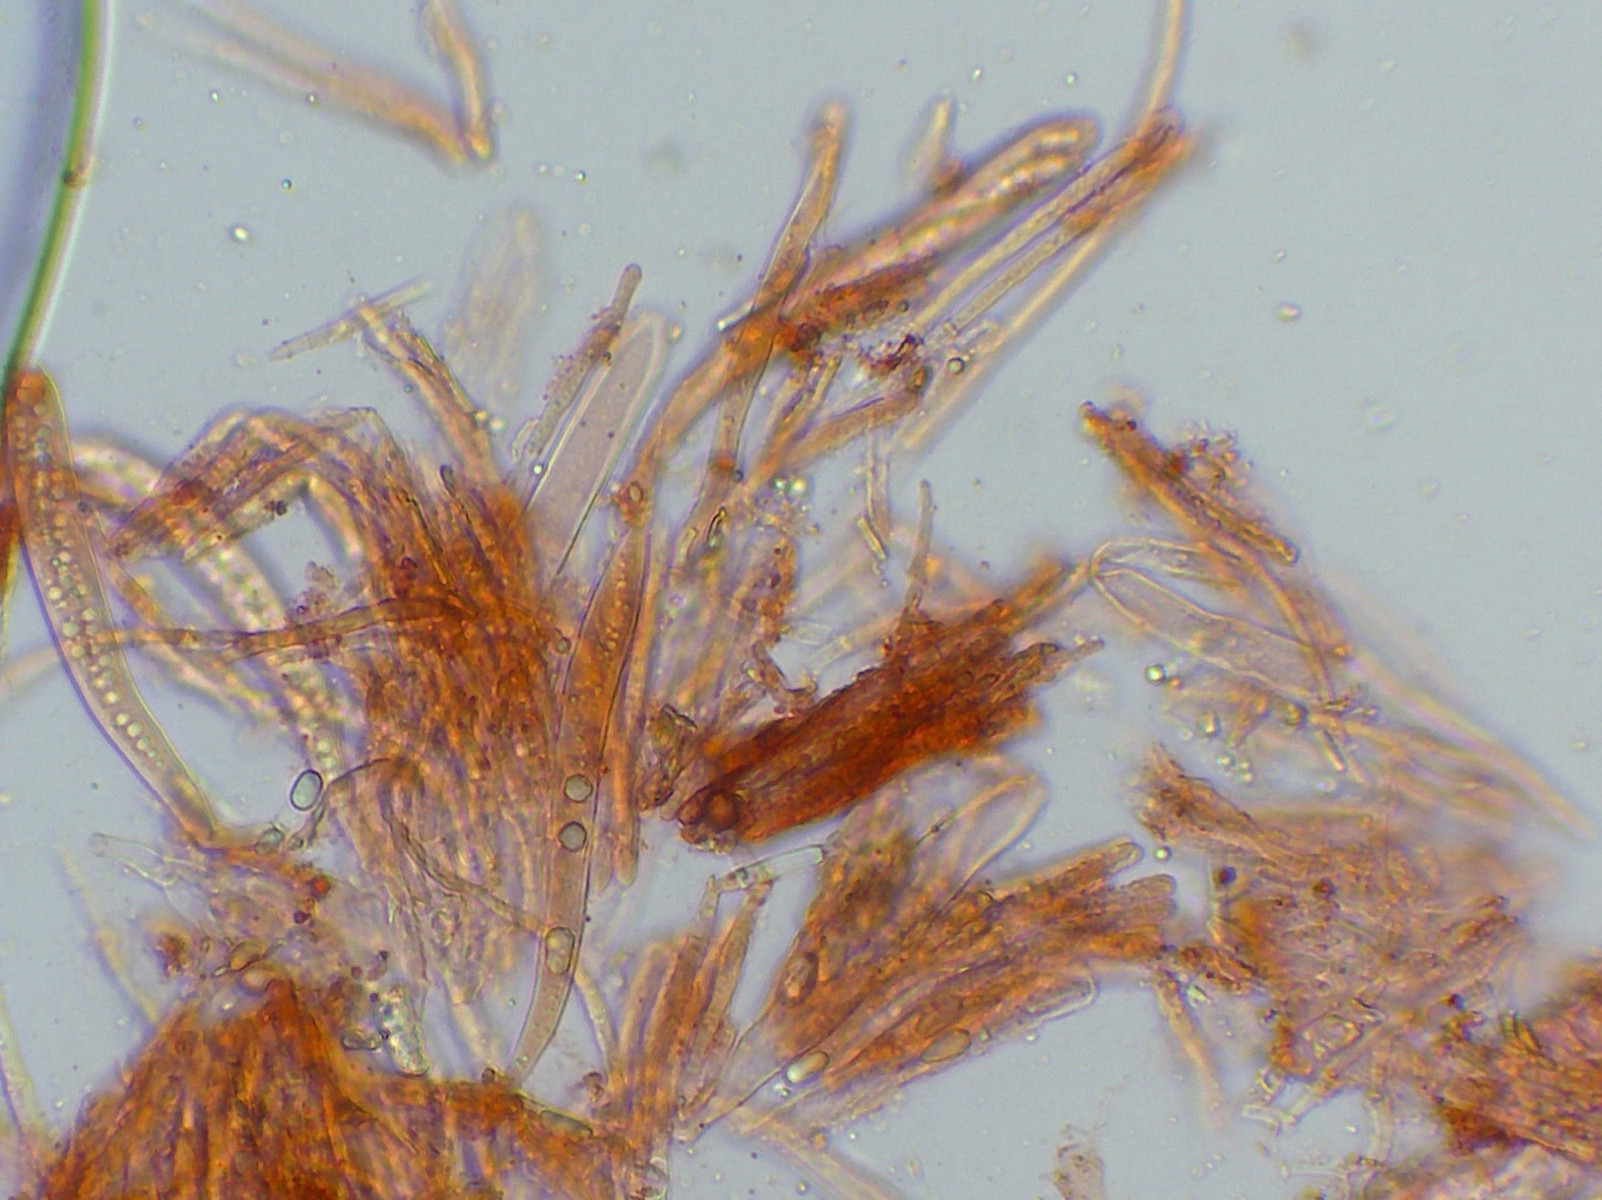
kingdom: Fungi
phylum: Ascomycota
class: Leotiomycetes
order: Helotiales
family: Helotiaceae
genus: Hymenoscyphus
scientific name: Hymenoscyphus scutula
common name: almindelig stilkskive
